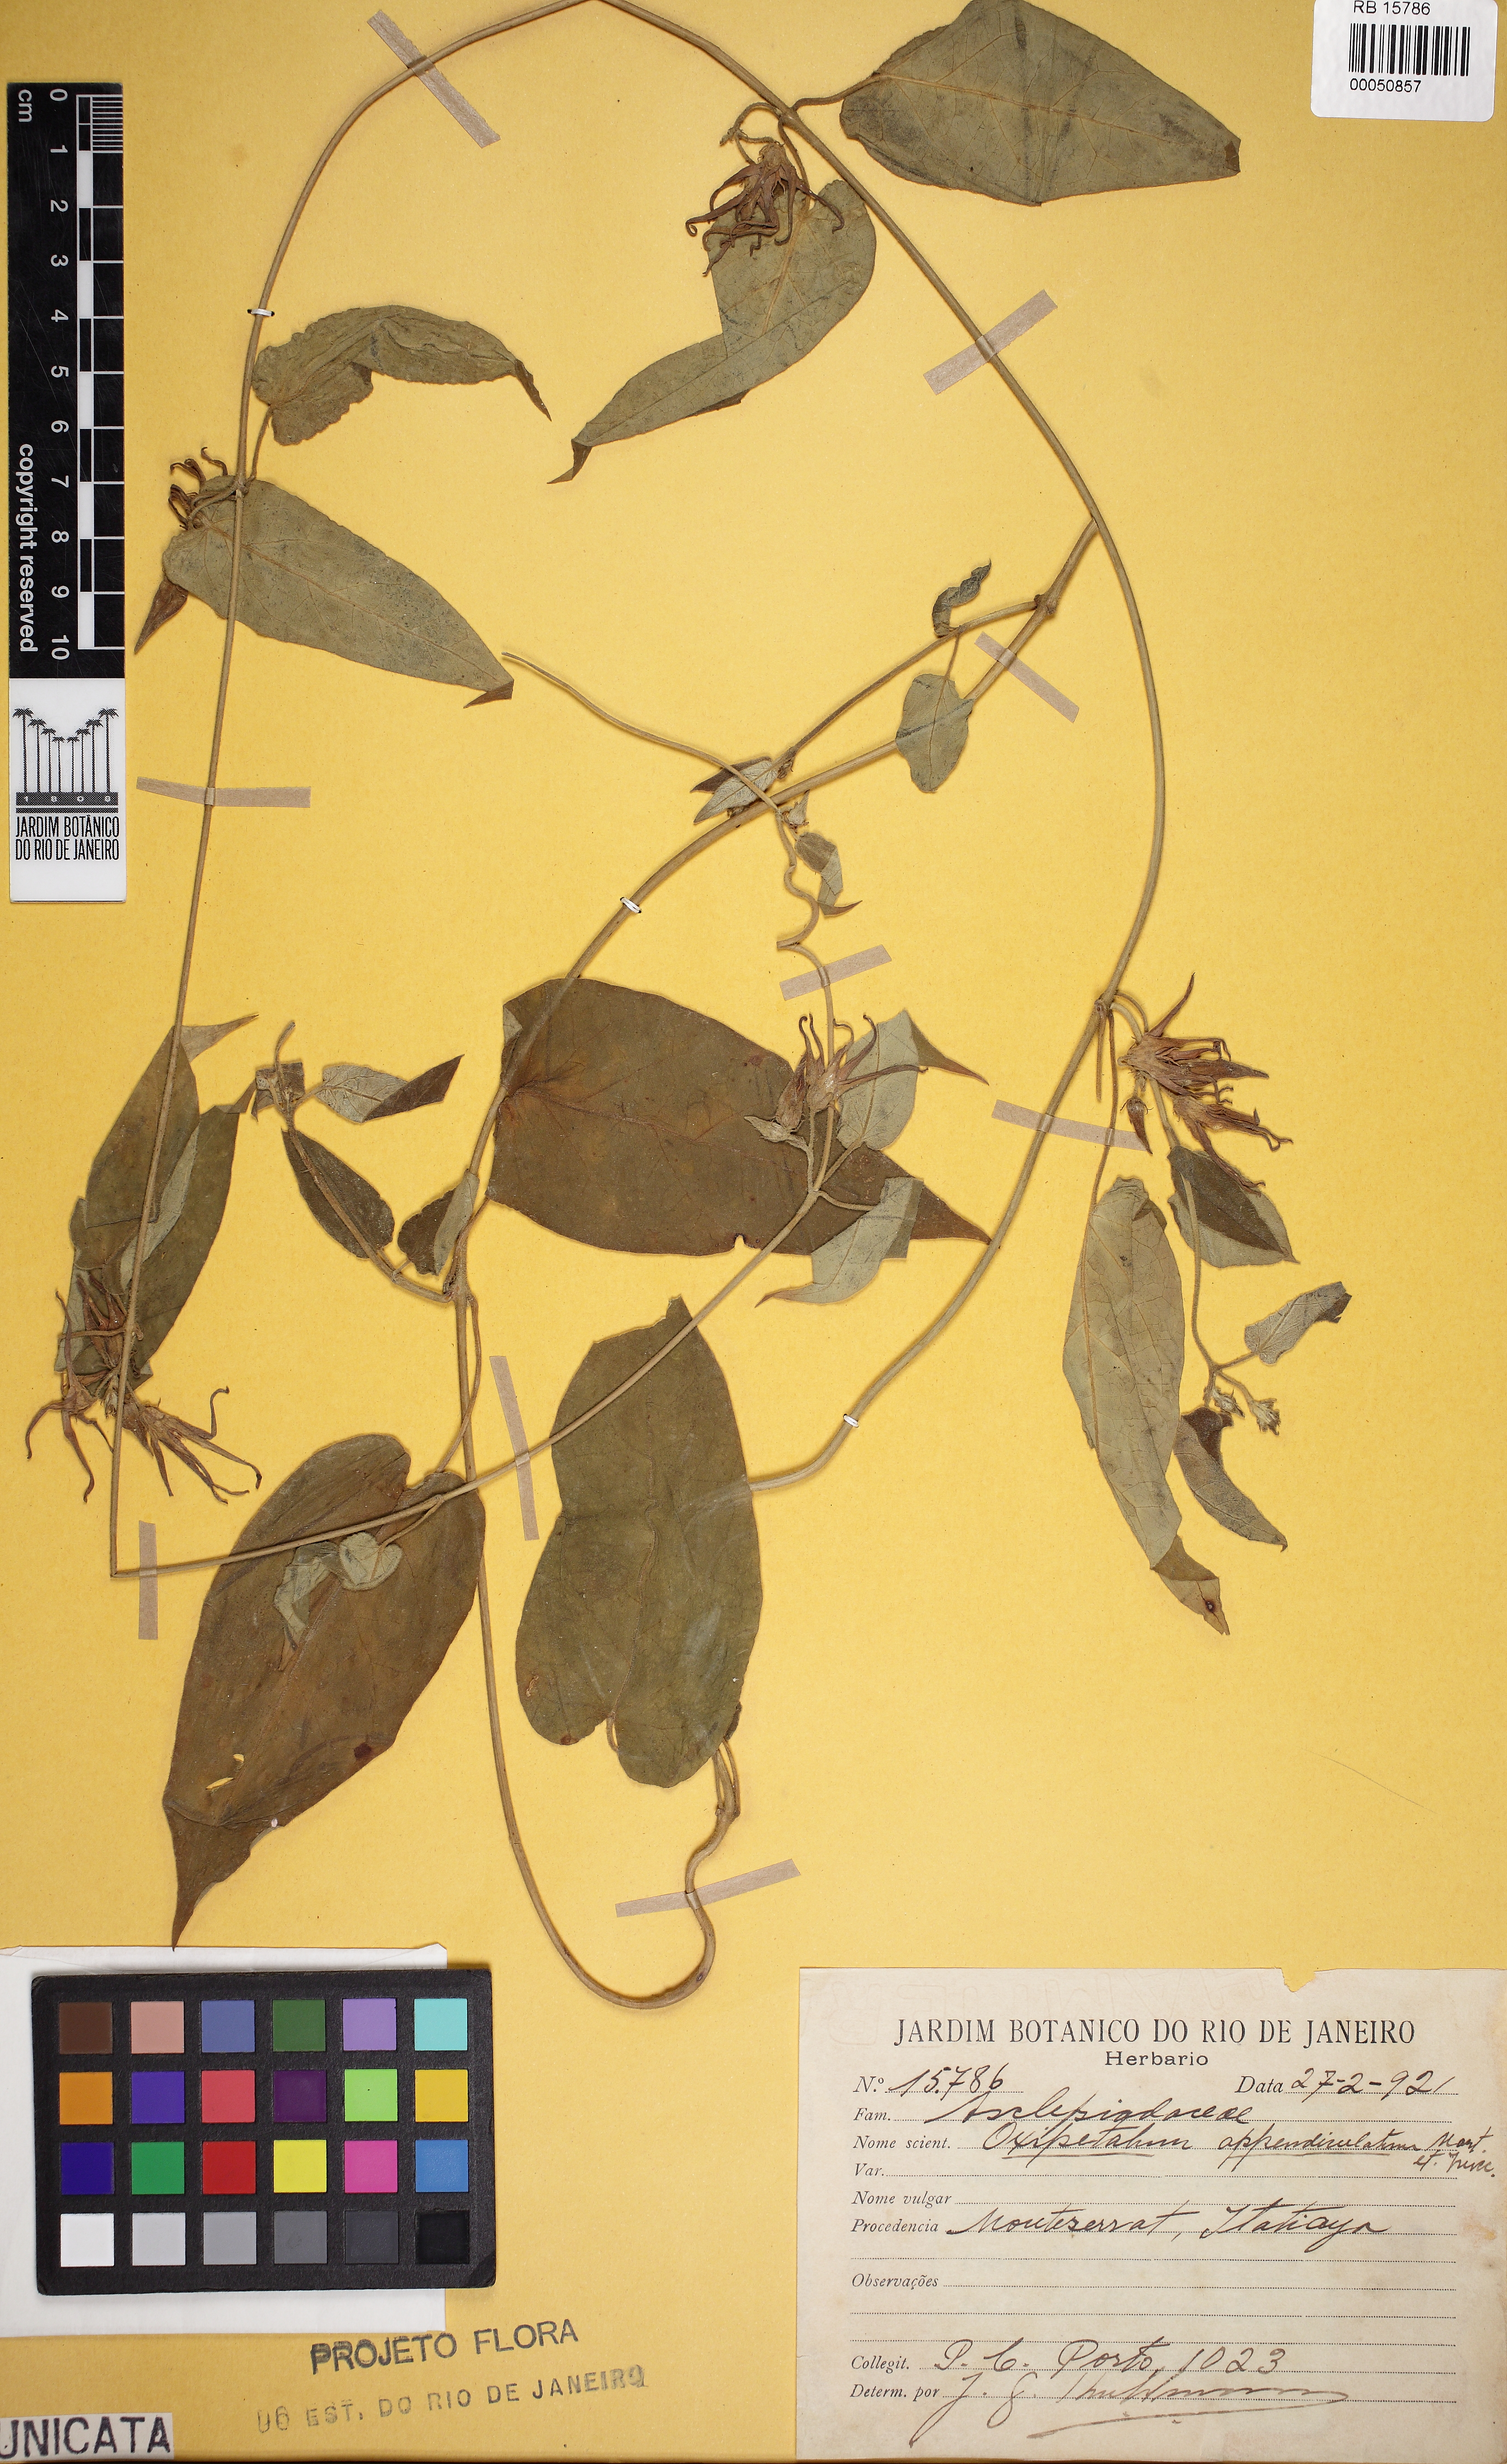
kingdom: Plantae
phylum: Tracheophyta
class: Magnoliopsida
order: Gentianales
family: Apocynaceae
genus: Oxypetalum
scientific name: Oxypetalum appendiculatum
